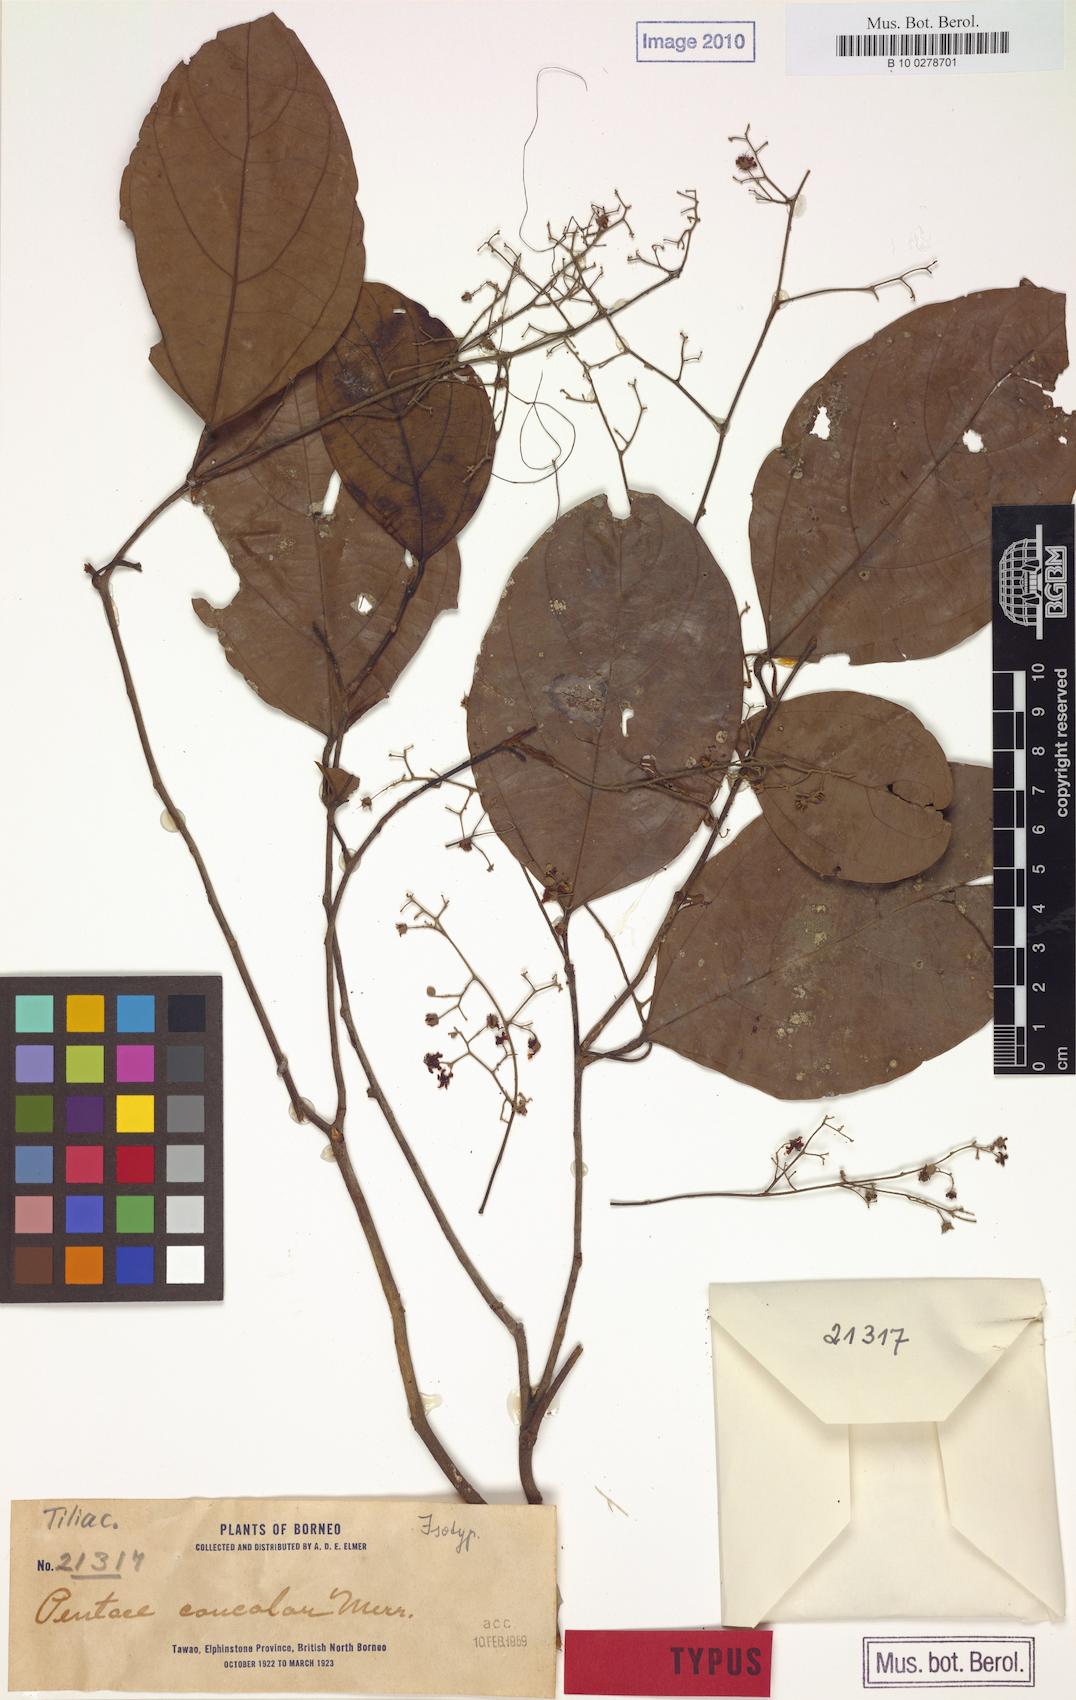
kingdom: Plantae
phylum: Tracheophyta
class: Magnoliopsida
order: Malvales
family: Malvaceae
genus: Pentace
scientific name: Pentace discolor
